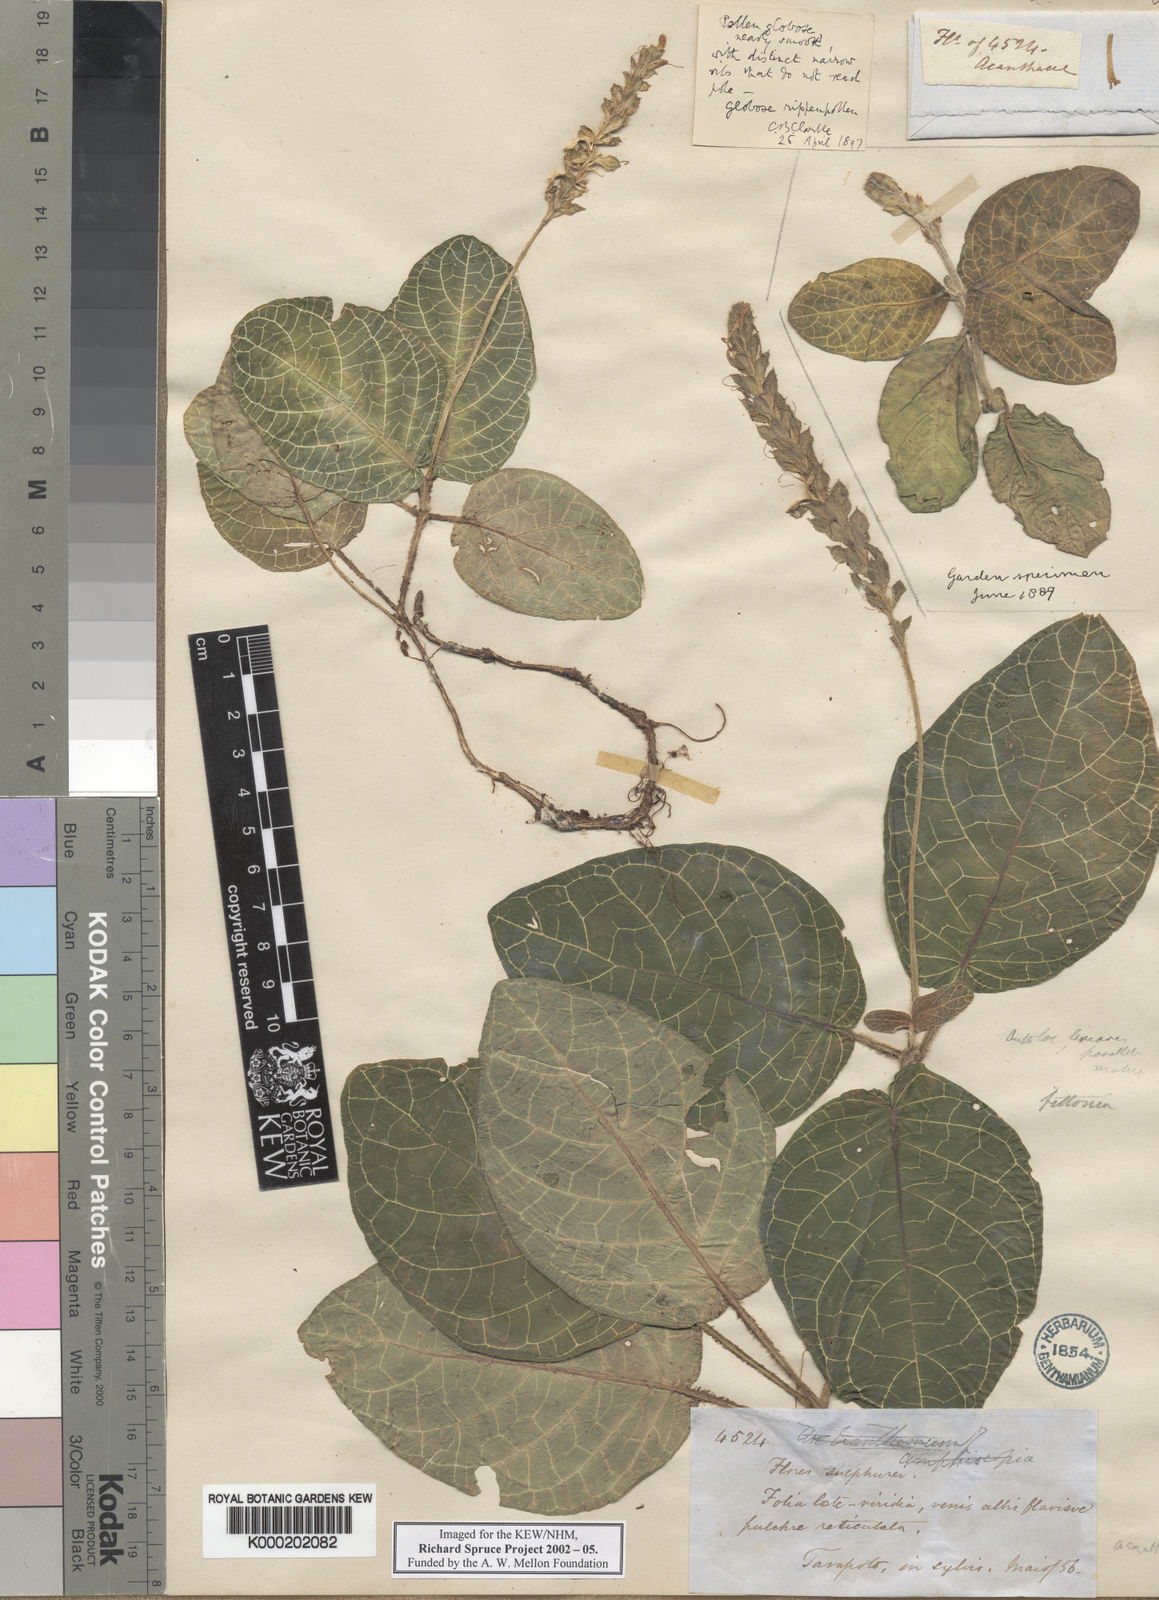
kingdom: Plantae
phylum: Tracheophyta
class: Magnoliopsida
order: Lamiales
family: Acanthaceae
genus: Fittonia
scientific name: Fittonia albivenis
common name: Mosaic-plant
